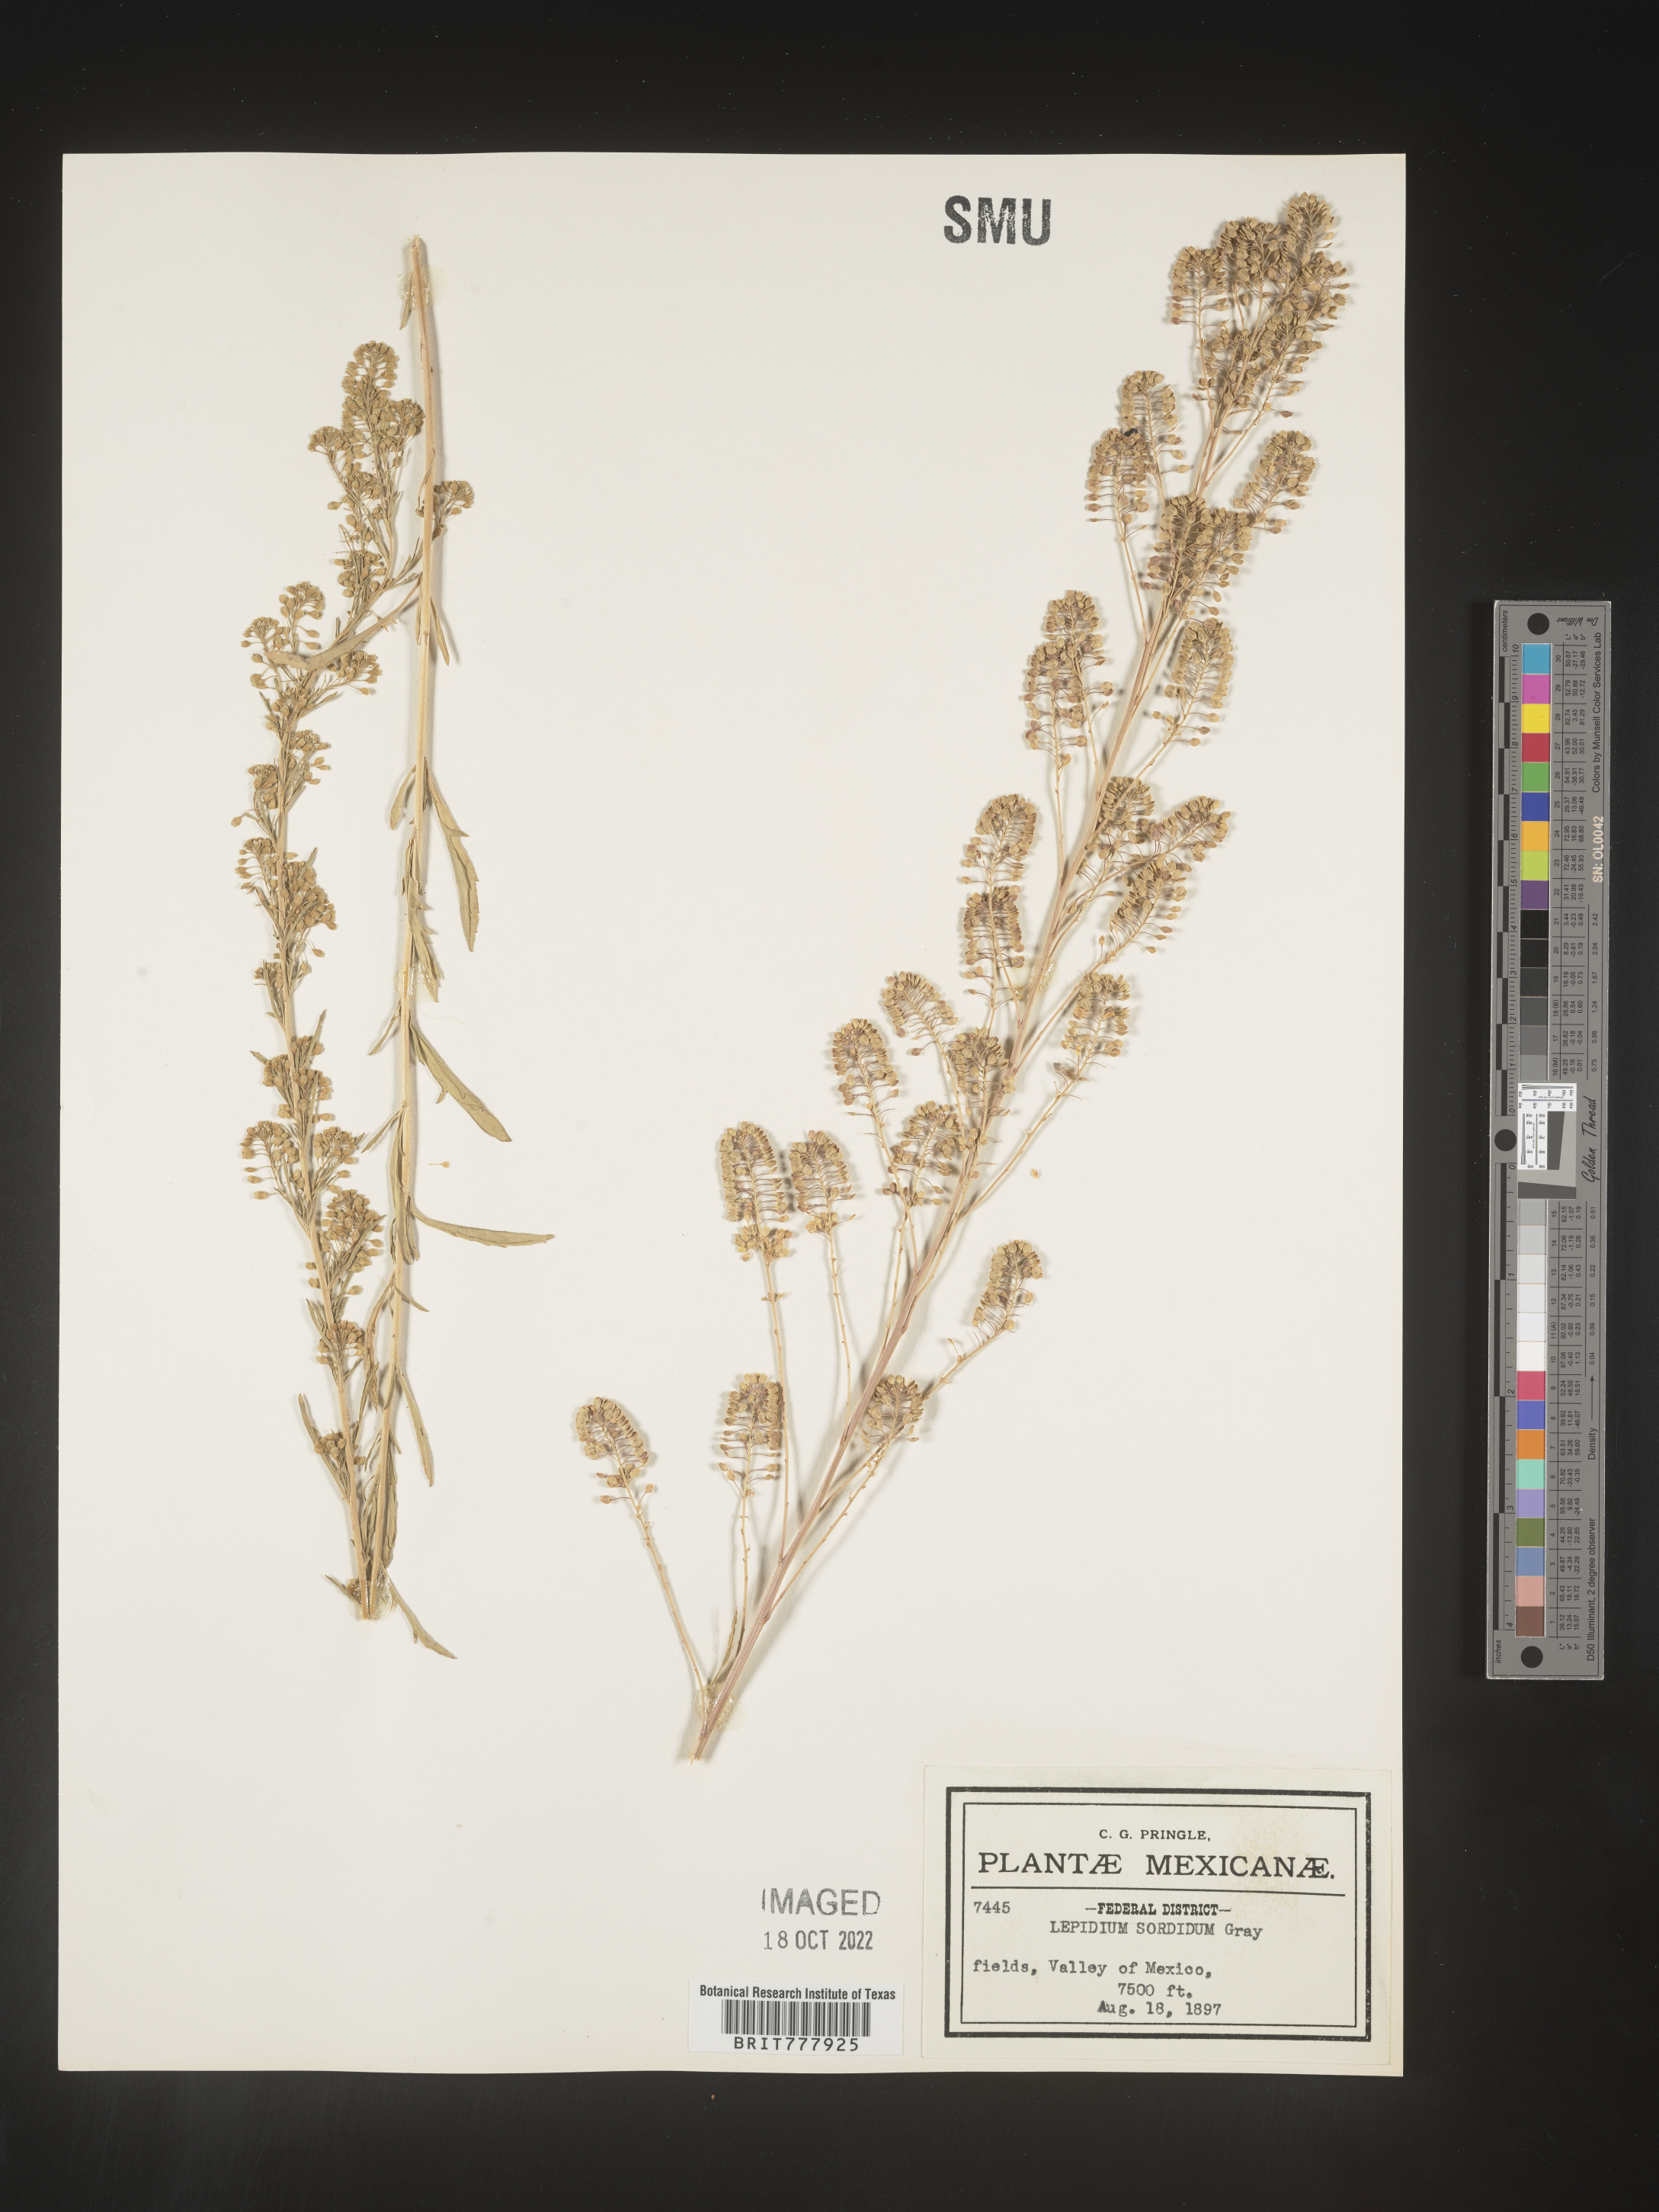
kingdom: Plantae
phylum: Tracheophyta
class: Magnoliopsida
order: Brassicales
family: Brassicaceae
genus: Lepidium
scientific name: Lepidium
